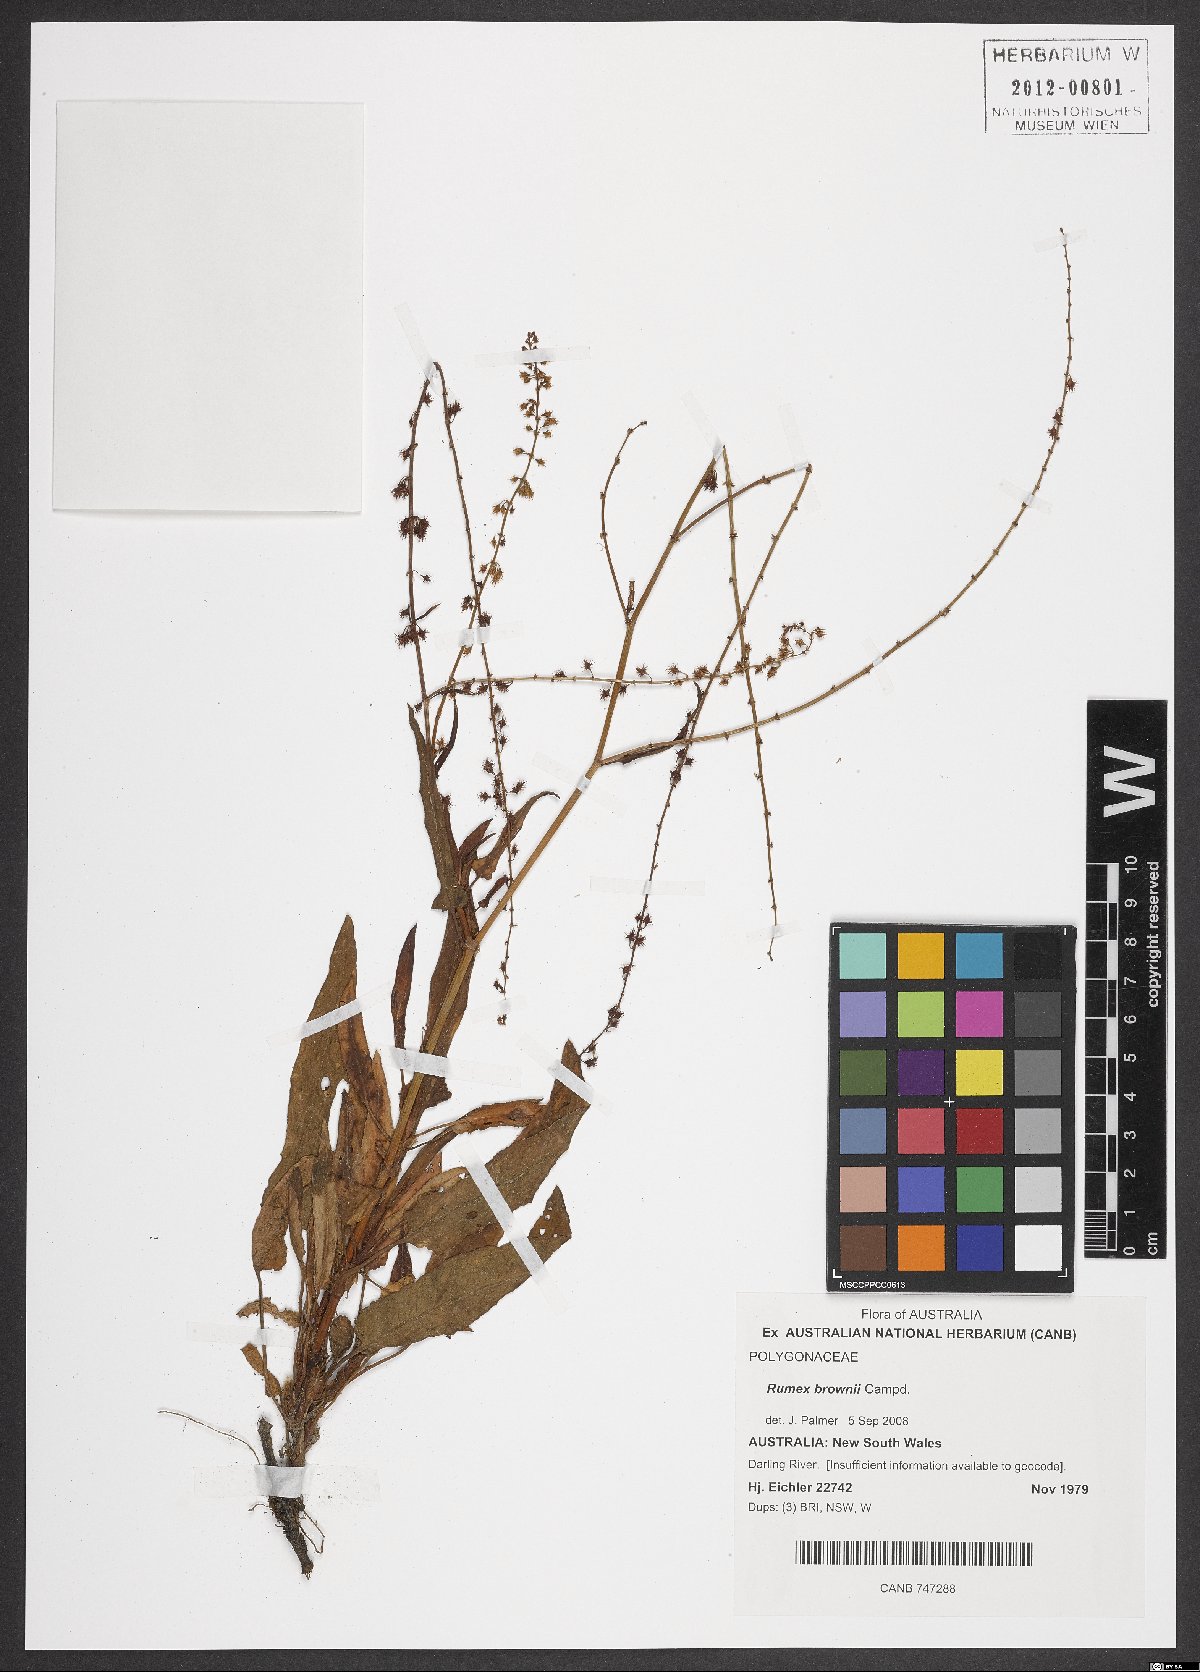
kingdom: Plantae
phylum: Tracheophyta
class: Magnoliopsida
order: Caryophyllales
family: Polygonaceae
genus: Rumex
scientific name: Rumex brownii
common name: Hooked dock
